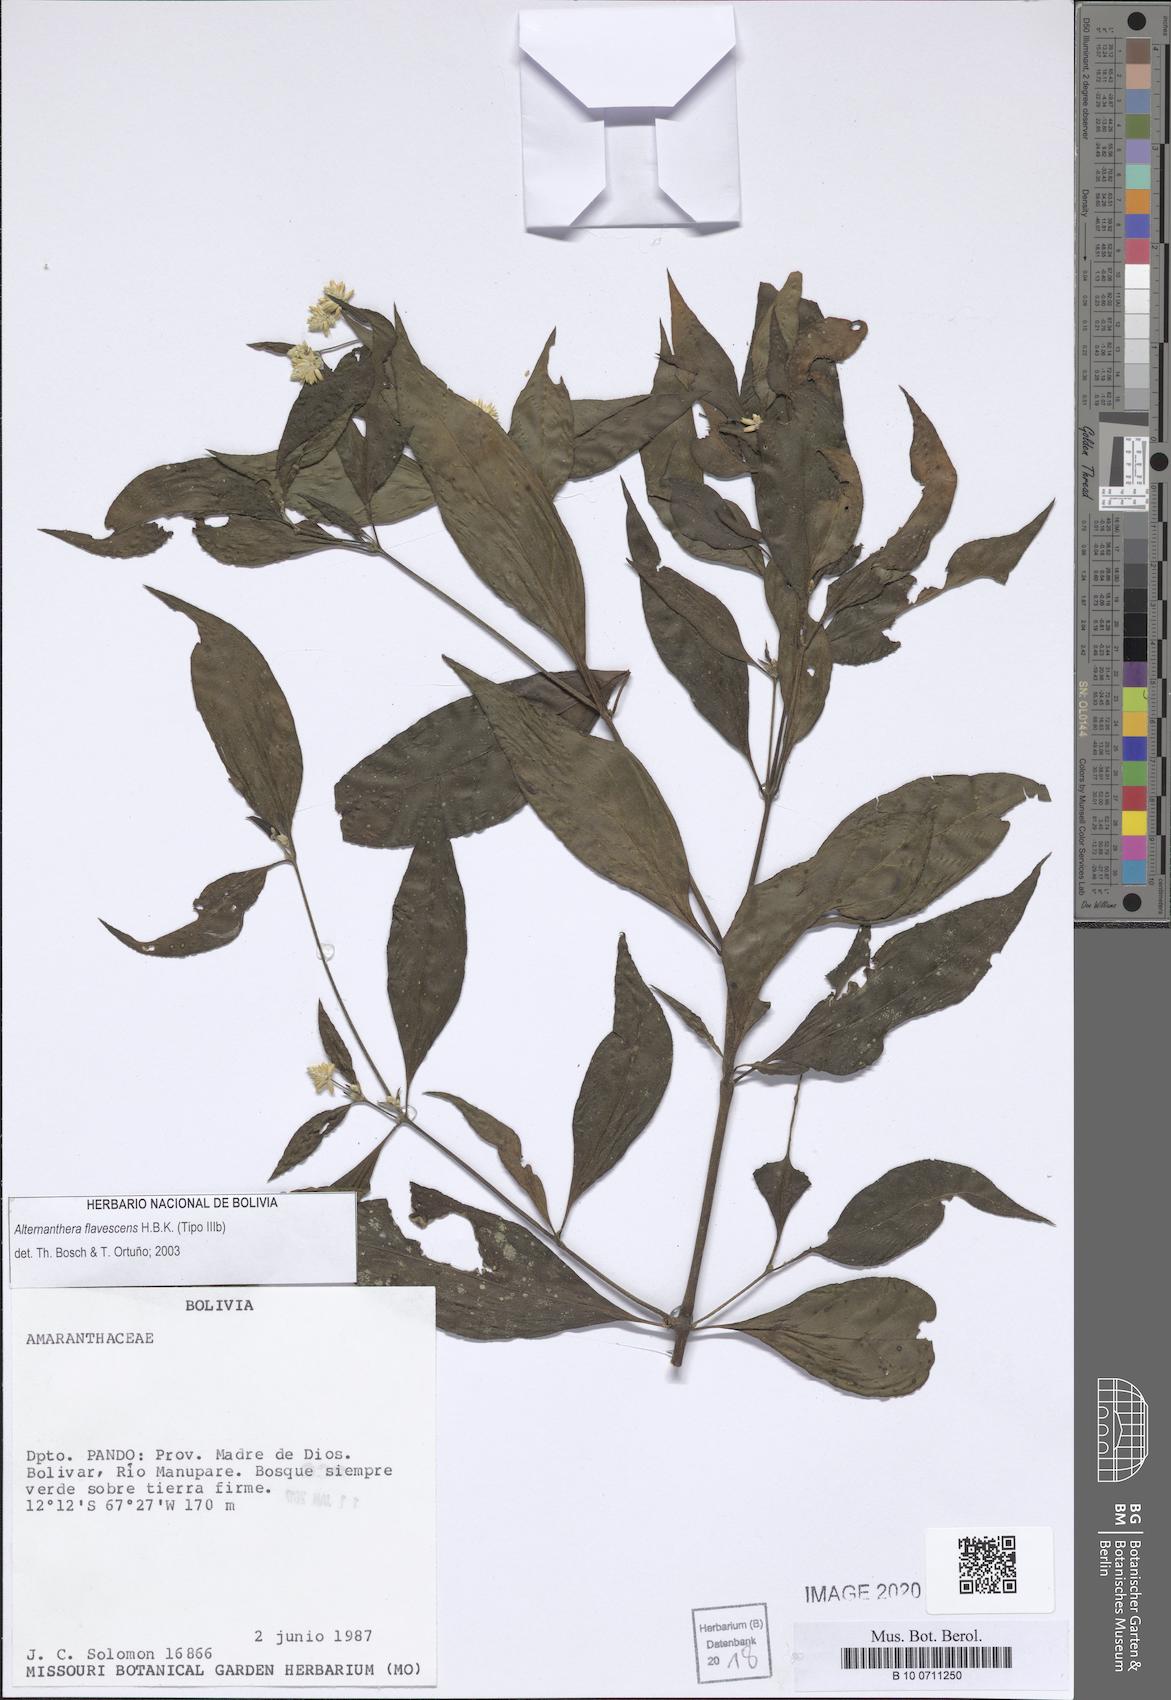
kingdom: Plantae
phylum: Tracheophyta
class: Magnoliopsida
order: Caryophyllales
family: Amaranthaceae
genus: Alternanthera
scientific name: Alternanthera flavescens
